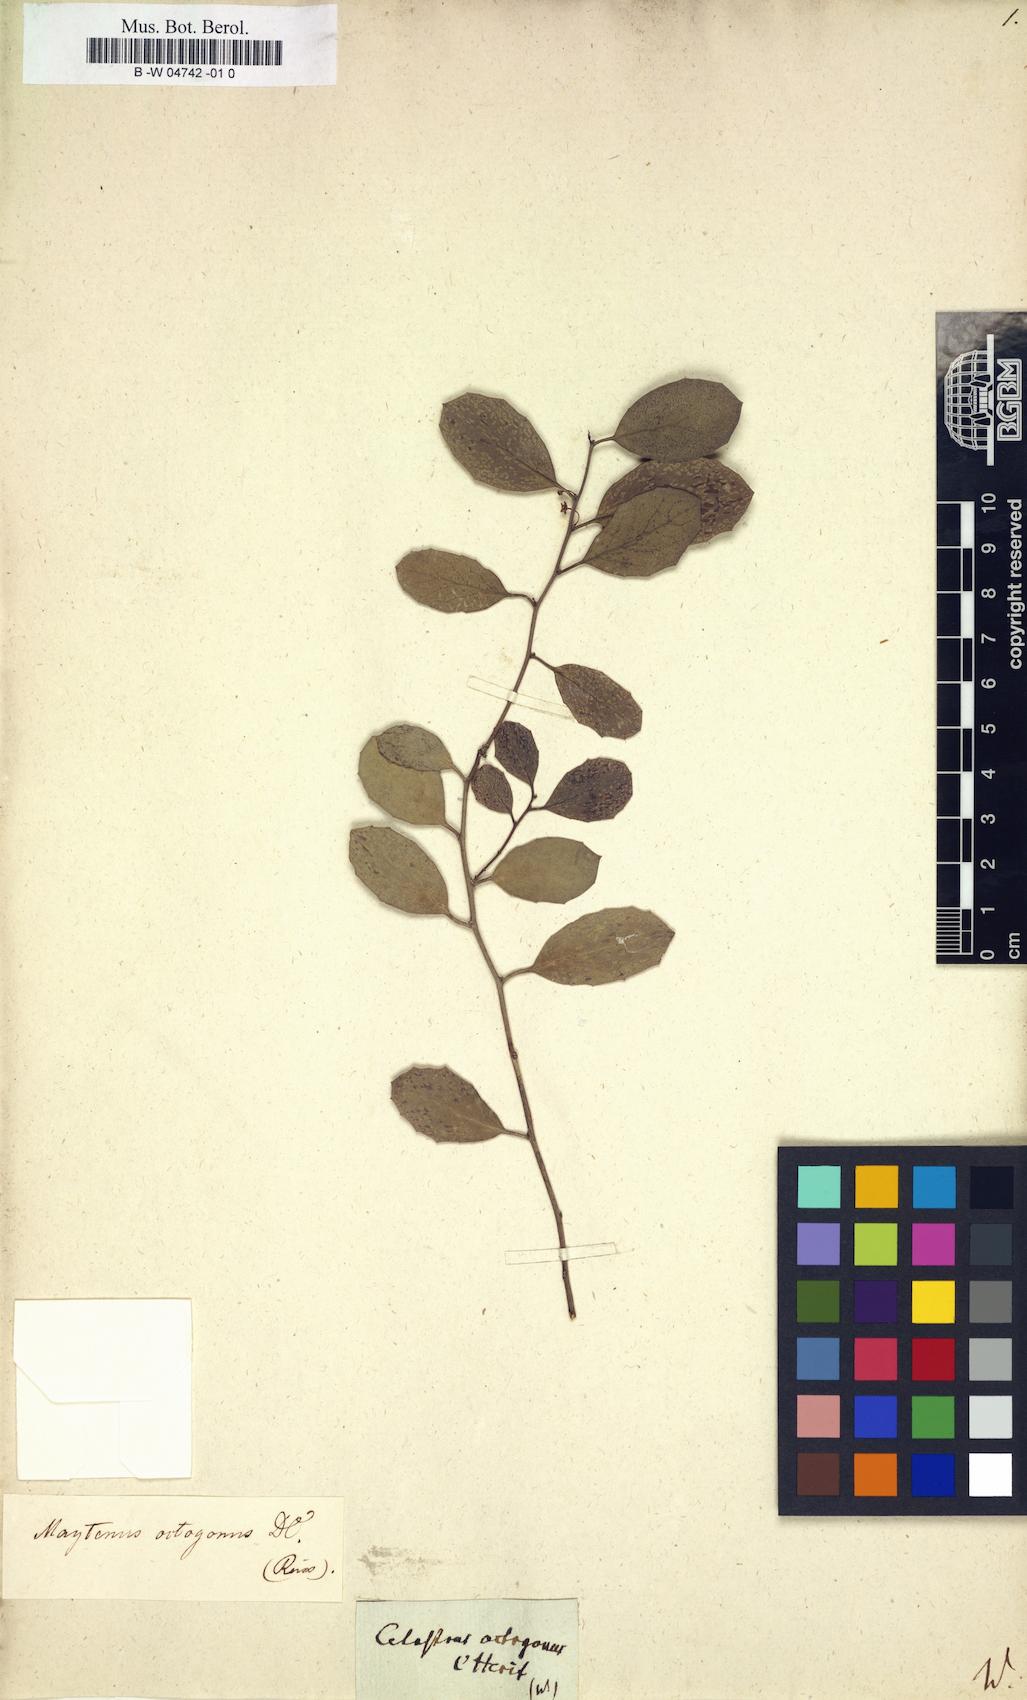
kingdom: Plantae
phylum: Tracheophyta
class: Magnoliopsida
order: Celastrales
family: Celastraceae
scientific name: Celastraceae
